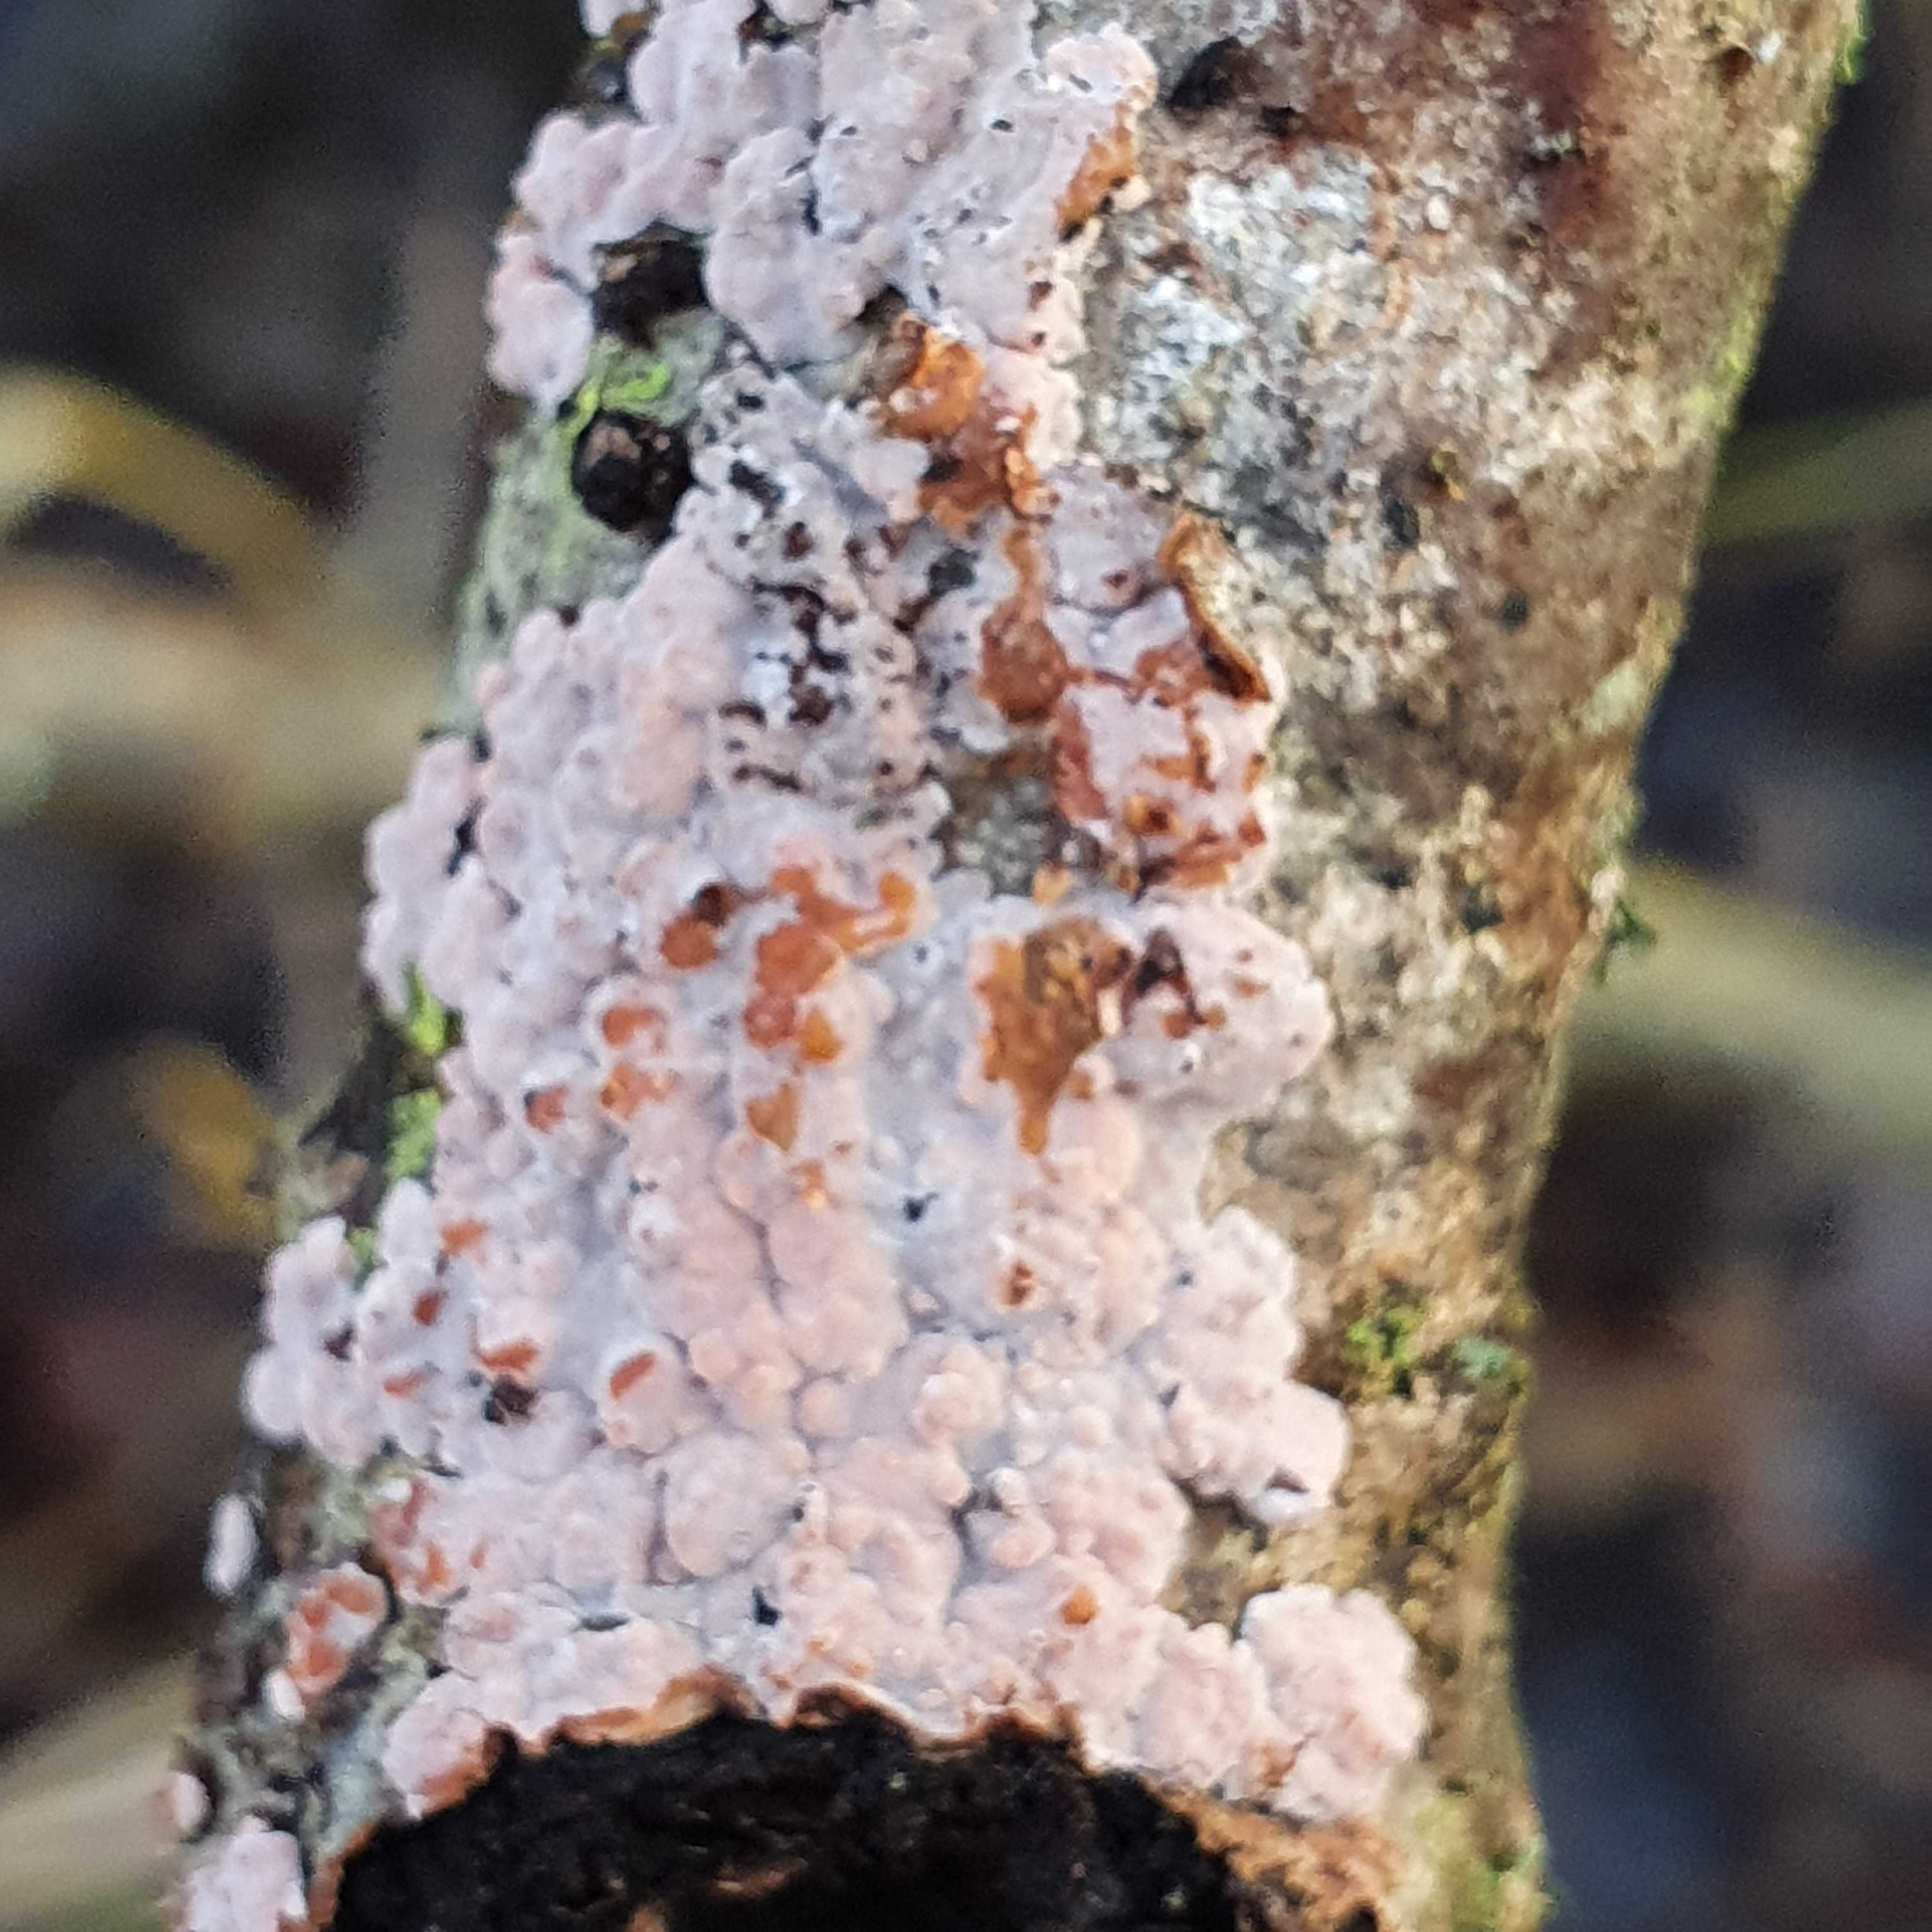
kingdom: Fungi
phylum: Basidiomycota
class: Agaricomycetes
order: Russulales
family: Peniophoraceae
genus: Peniophora
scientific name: Peniophora polygonia
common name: polygon-voksskind
